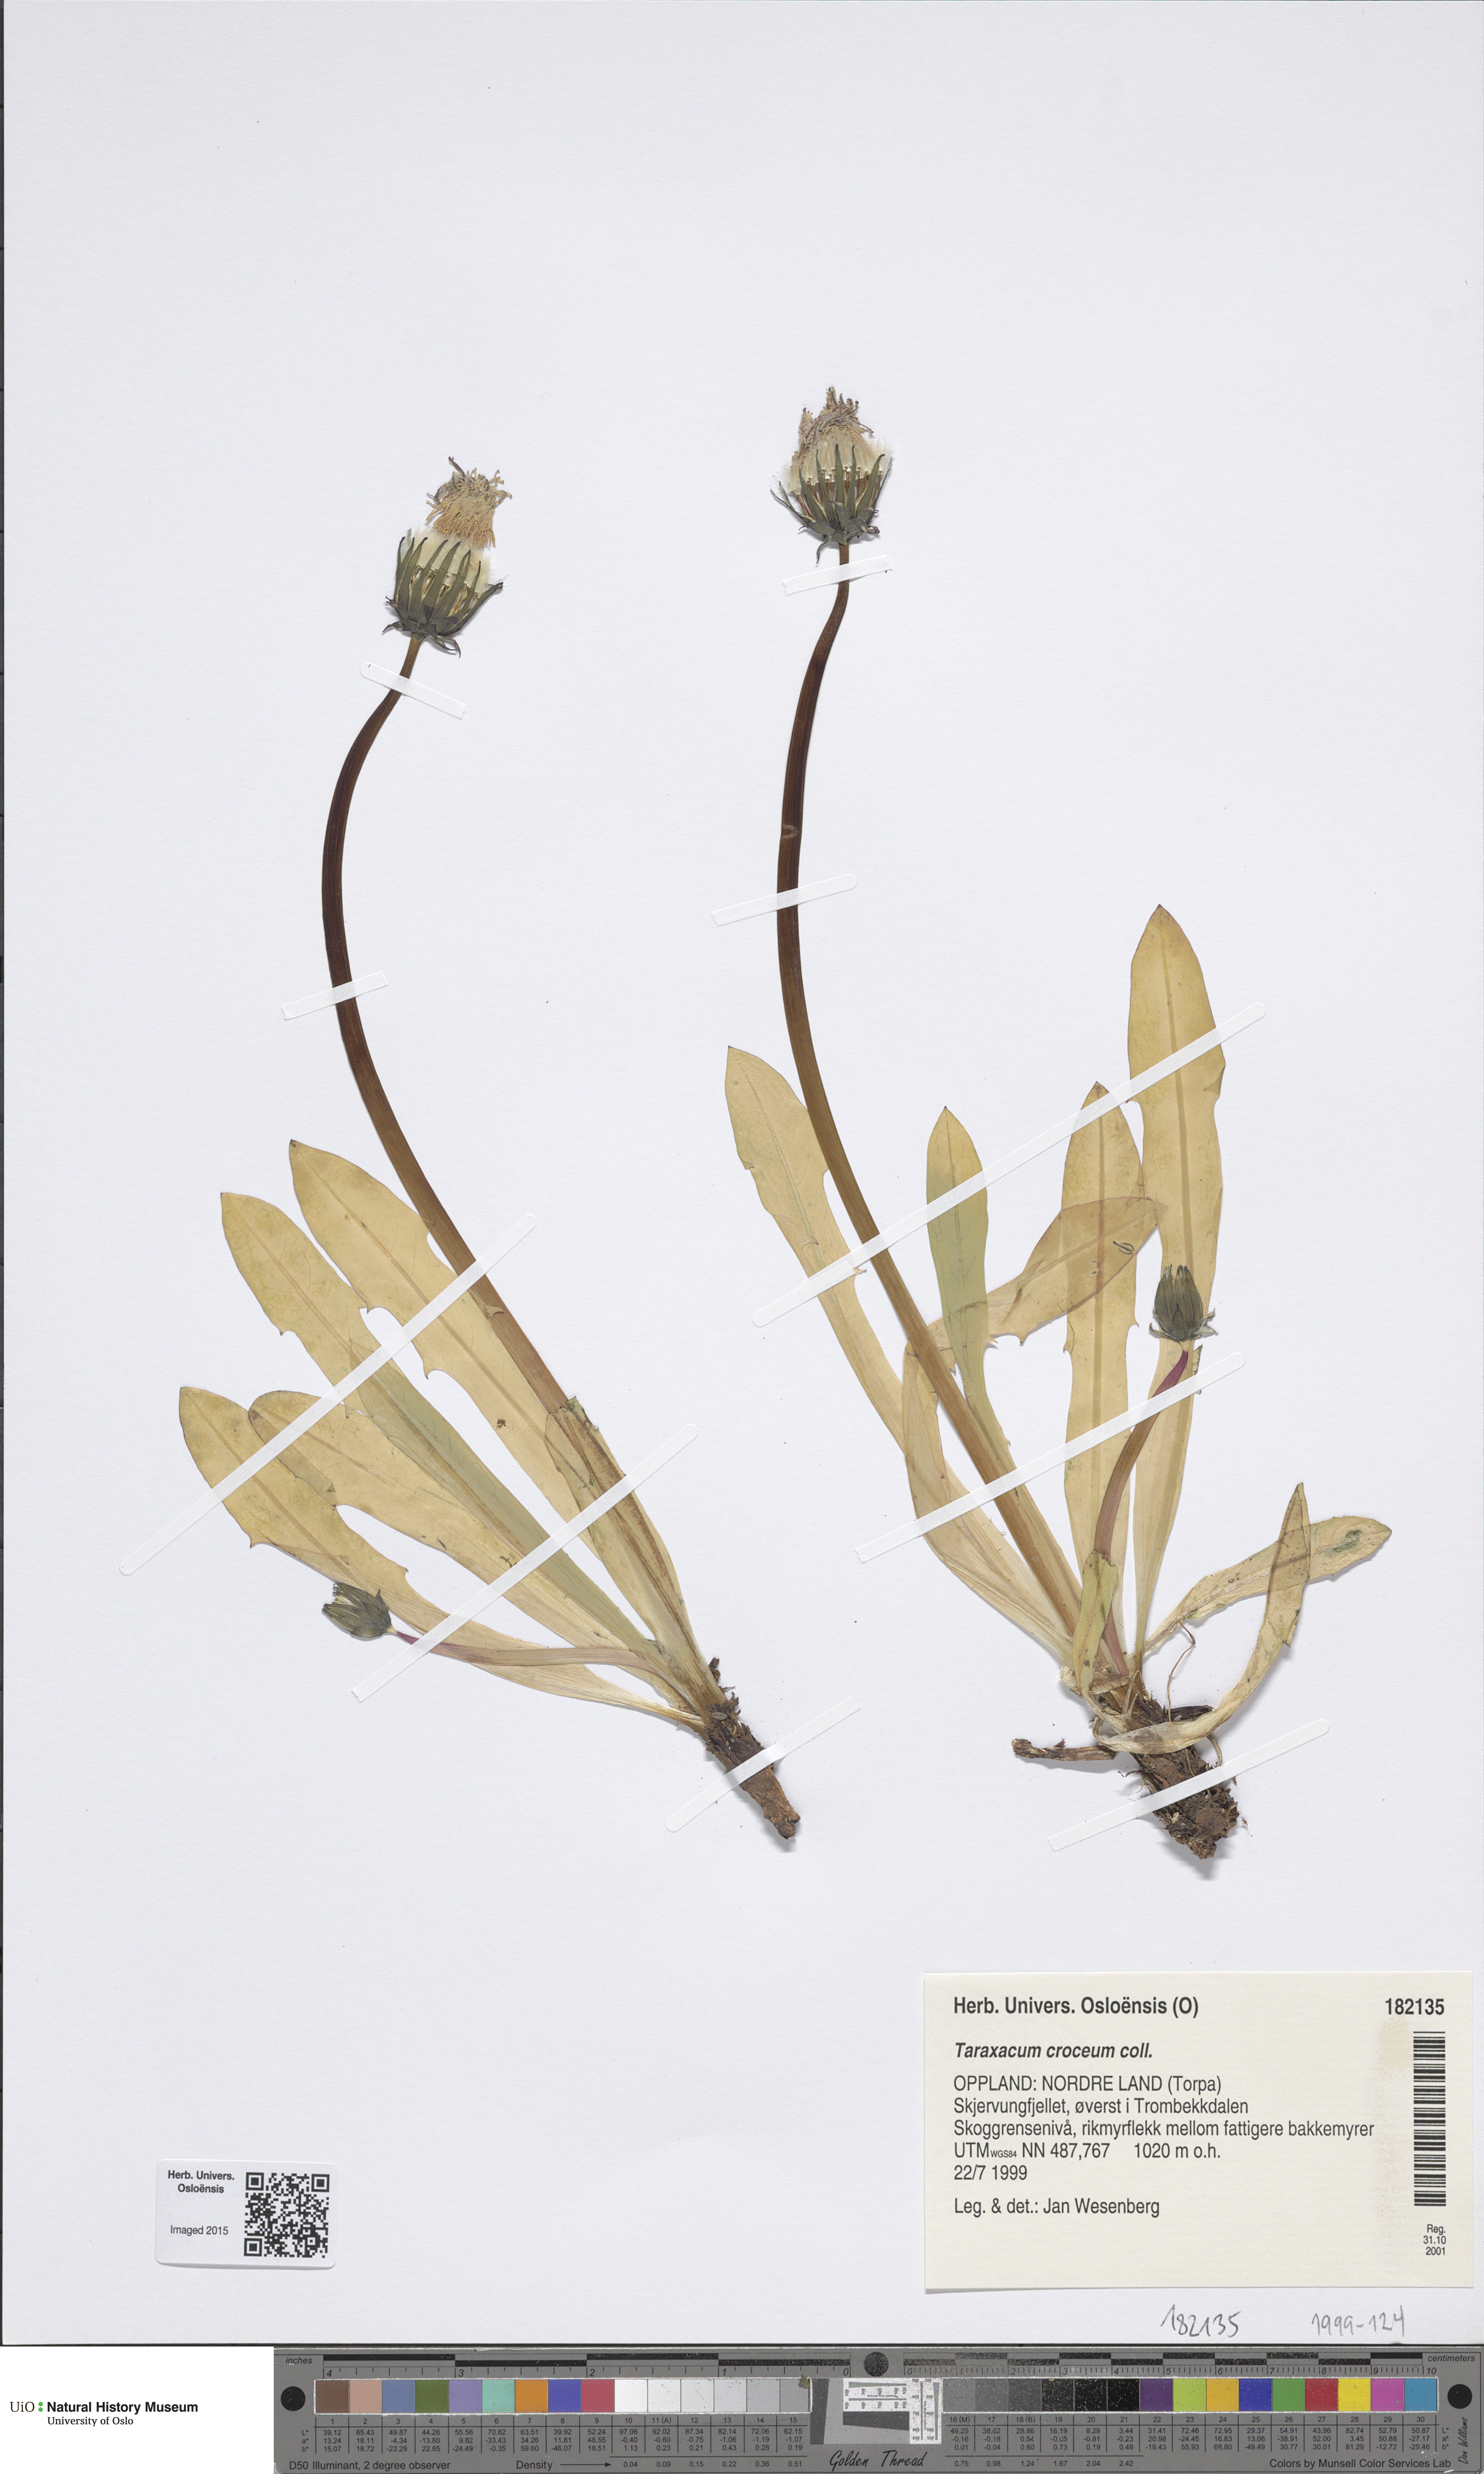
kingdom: Plantae
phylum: Tracheophyta
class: Magnoliopsida
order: Asterales
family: Asteraceae
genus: Taraxacum
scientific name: Taraxacum croceum
